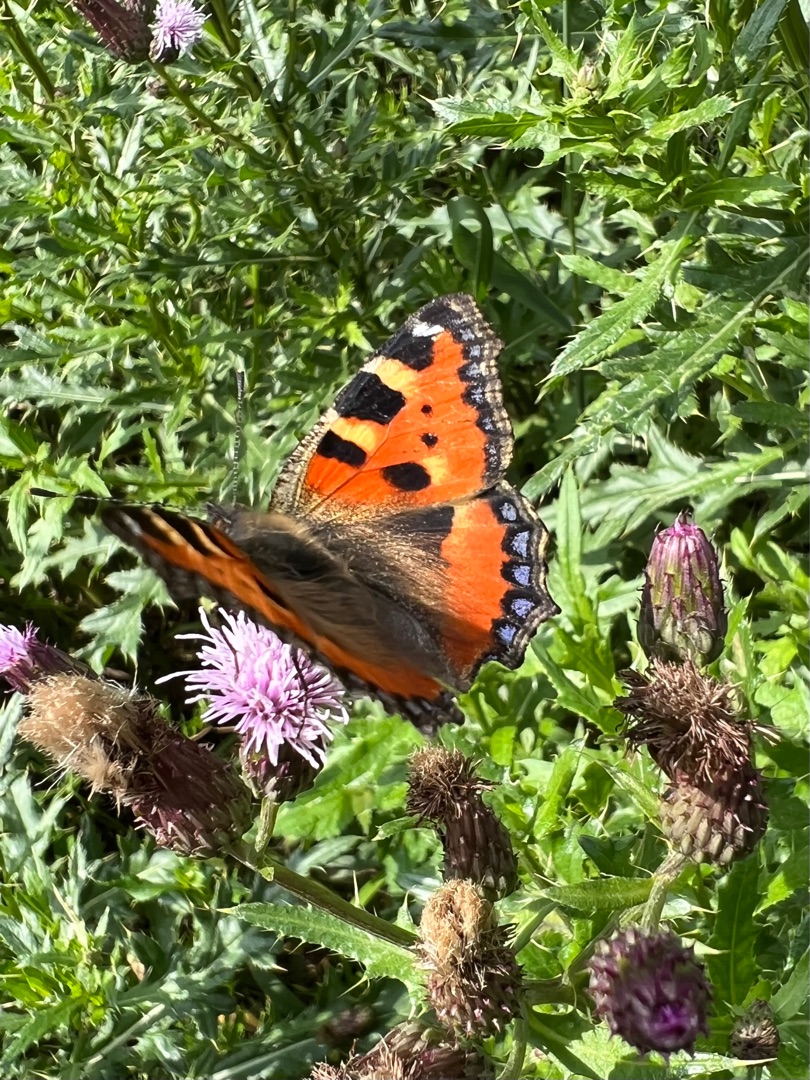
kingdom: Animalia
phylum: Arthropoda
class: Insecta
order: Lepidoptera
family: Nymphalidae
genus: Aglais
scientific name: Aglais urticae
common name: Nældens takvinge
